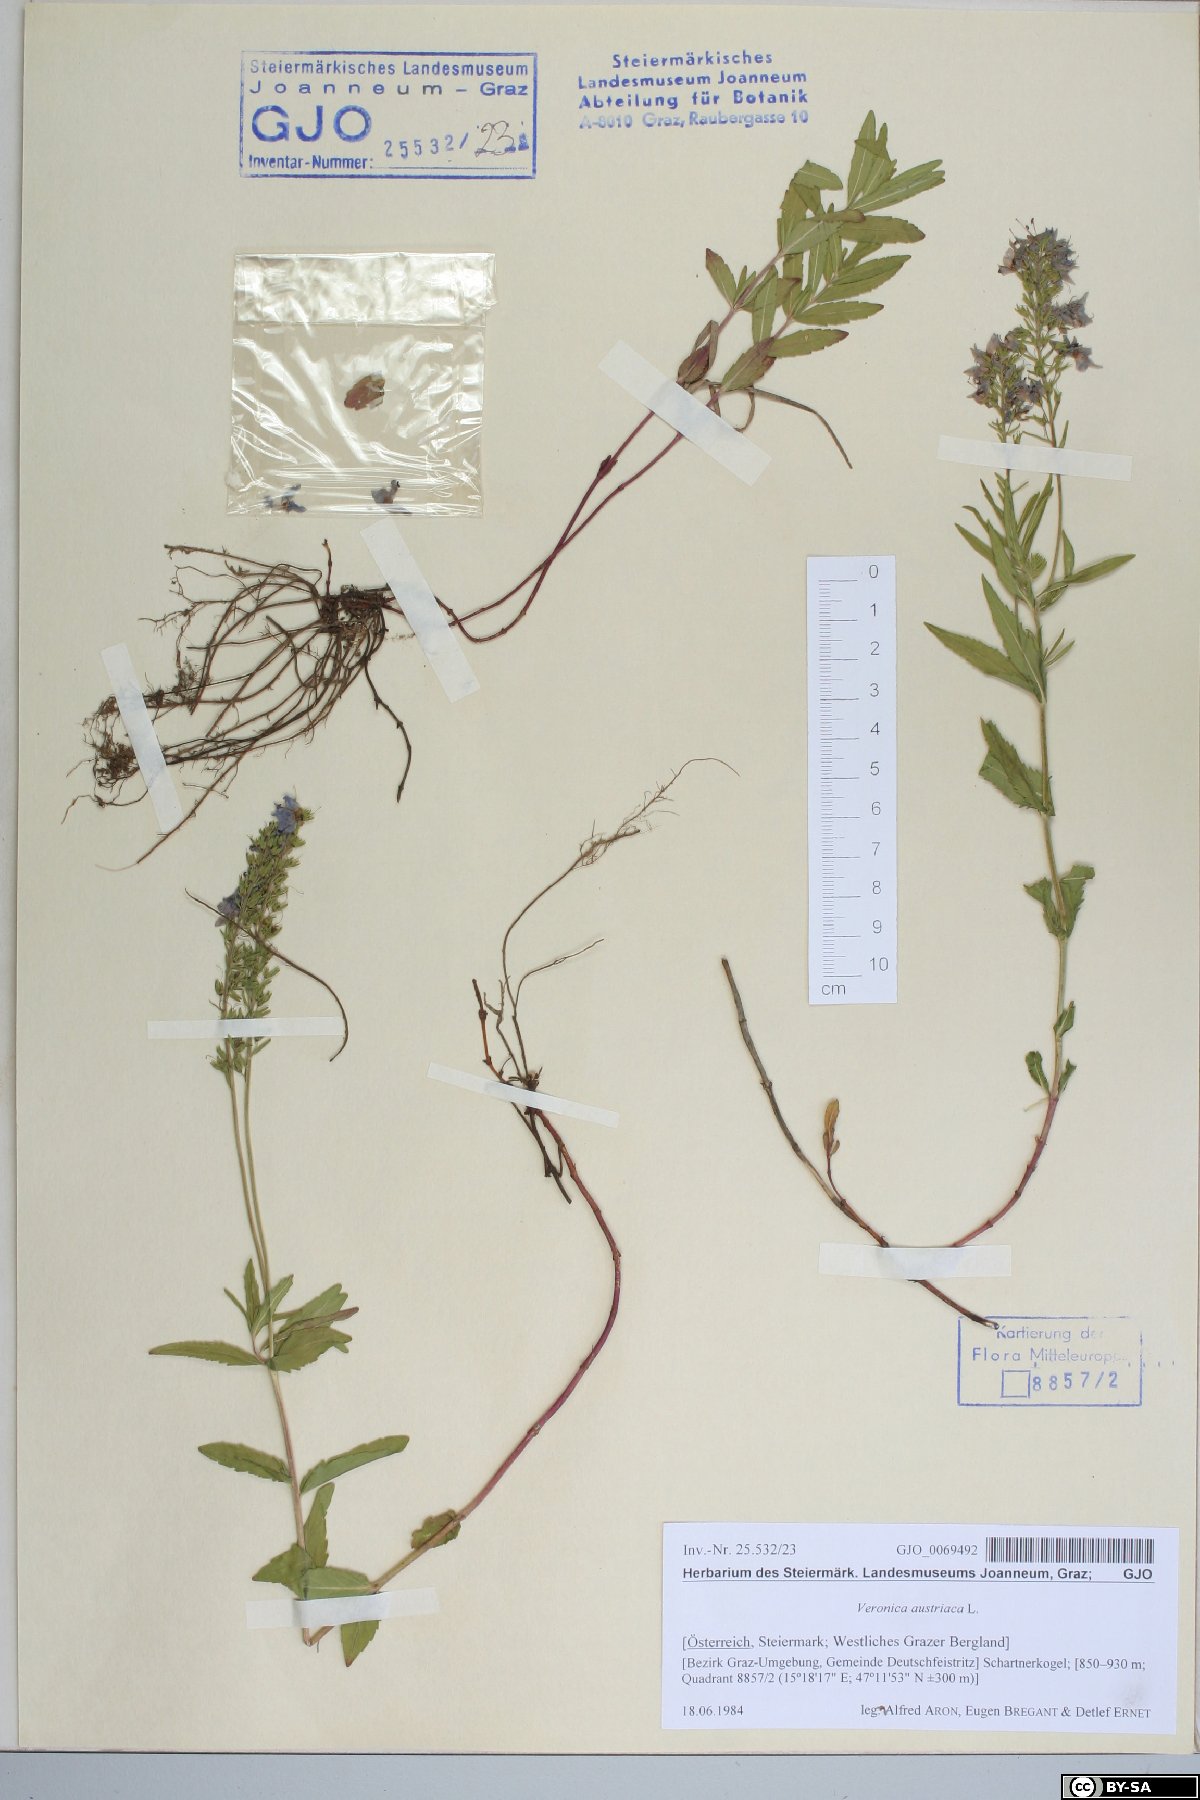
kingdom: Plantae
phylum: Tracheophyta
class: Magnoliopsida
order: Lamiales
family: Plantaginaceae
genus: Veronica
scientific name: Veronica austriaca
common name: Large speedwell
